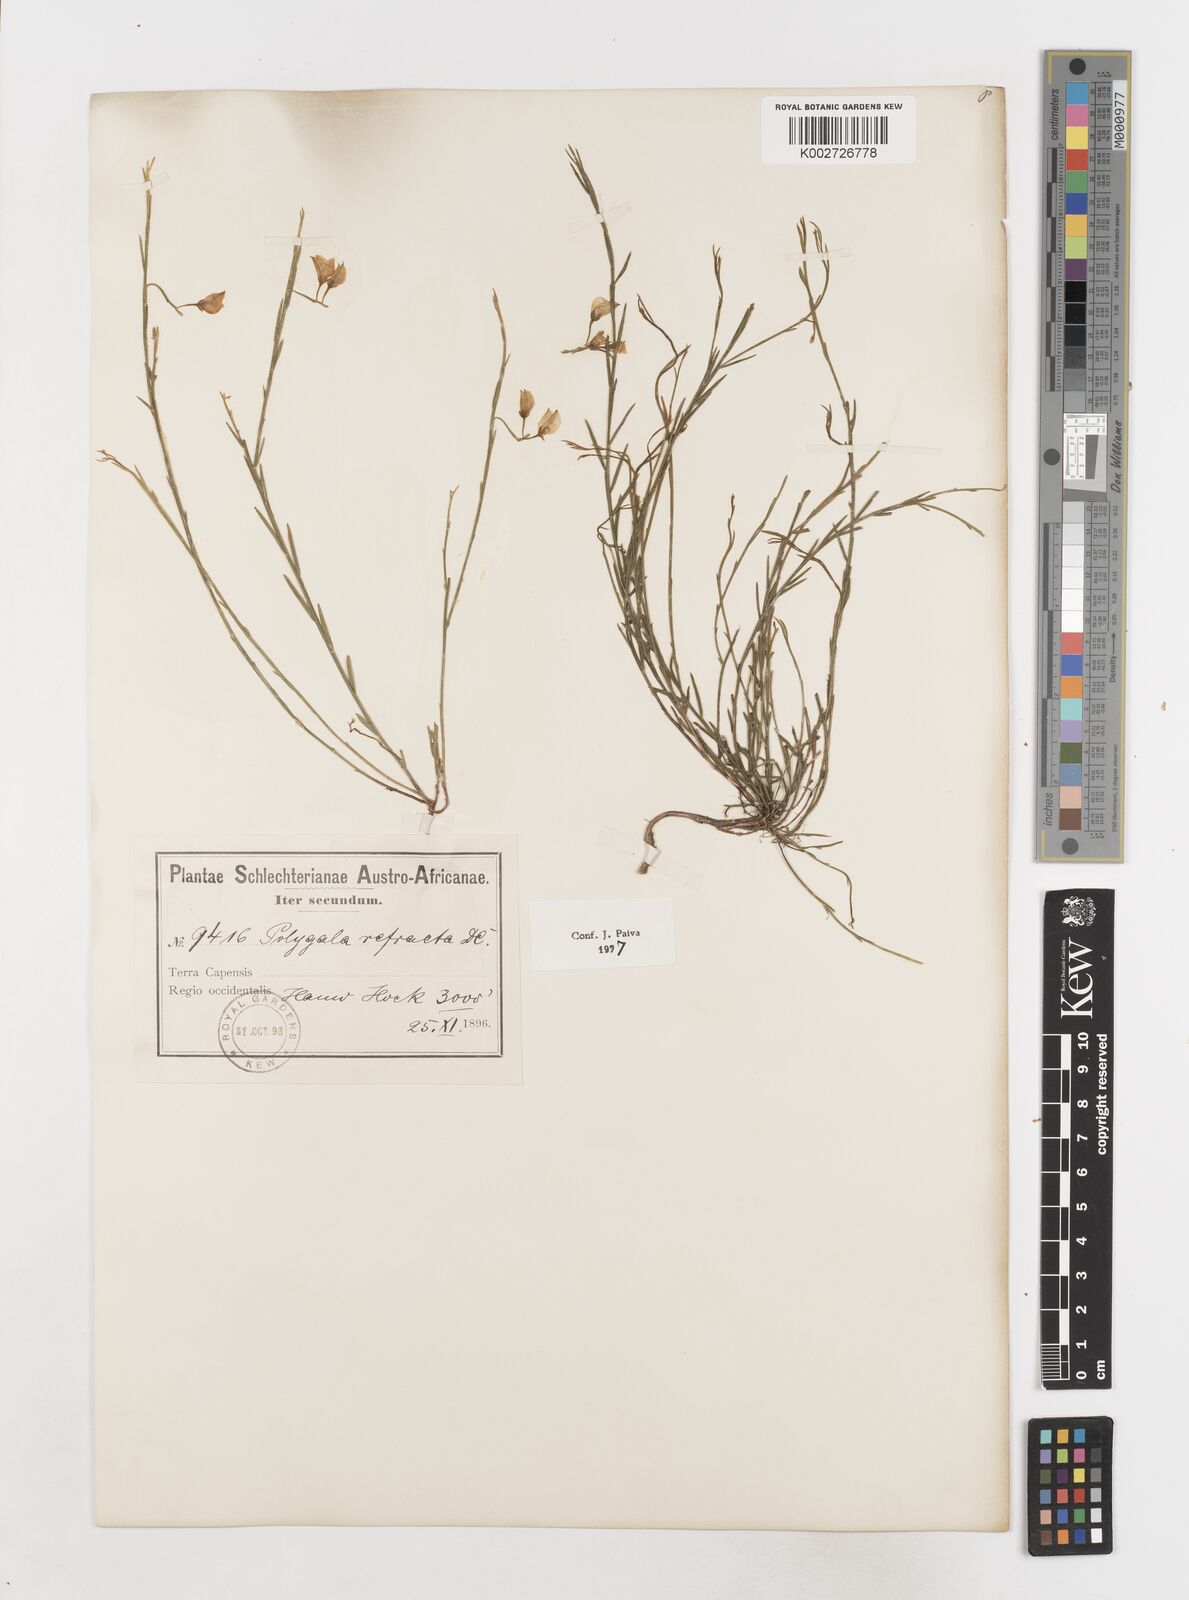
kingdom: Plantae
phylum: Tracheophyta
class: Magnoliopsida
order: Fabales
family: Polygalaceae
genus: Polygala
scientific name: Polygala refracta
